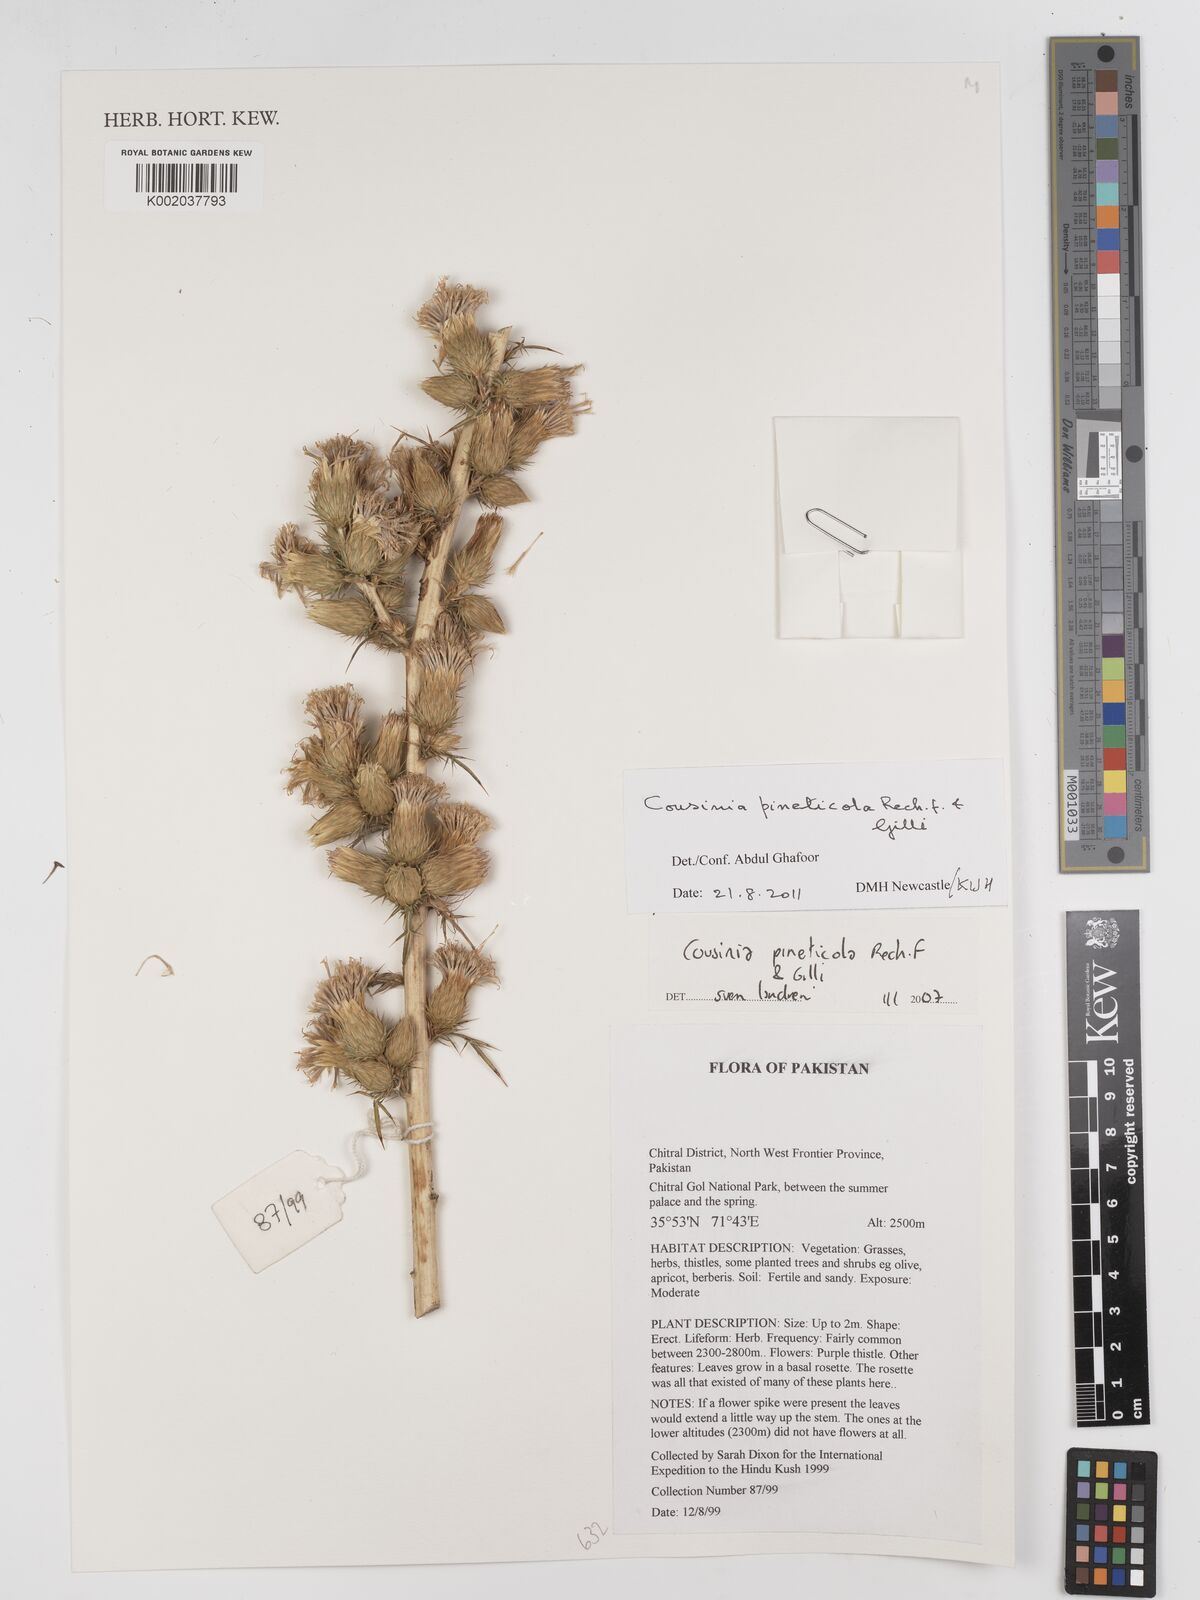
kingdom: Plantae
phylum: Tracheophyta
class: Magnoliopsida
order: Asterales
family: Asteraceae
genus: Cousinia
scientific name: Cousinia pineticola
